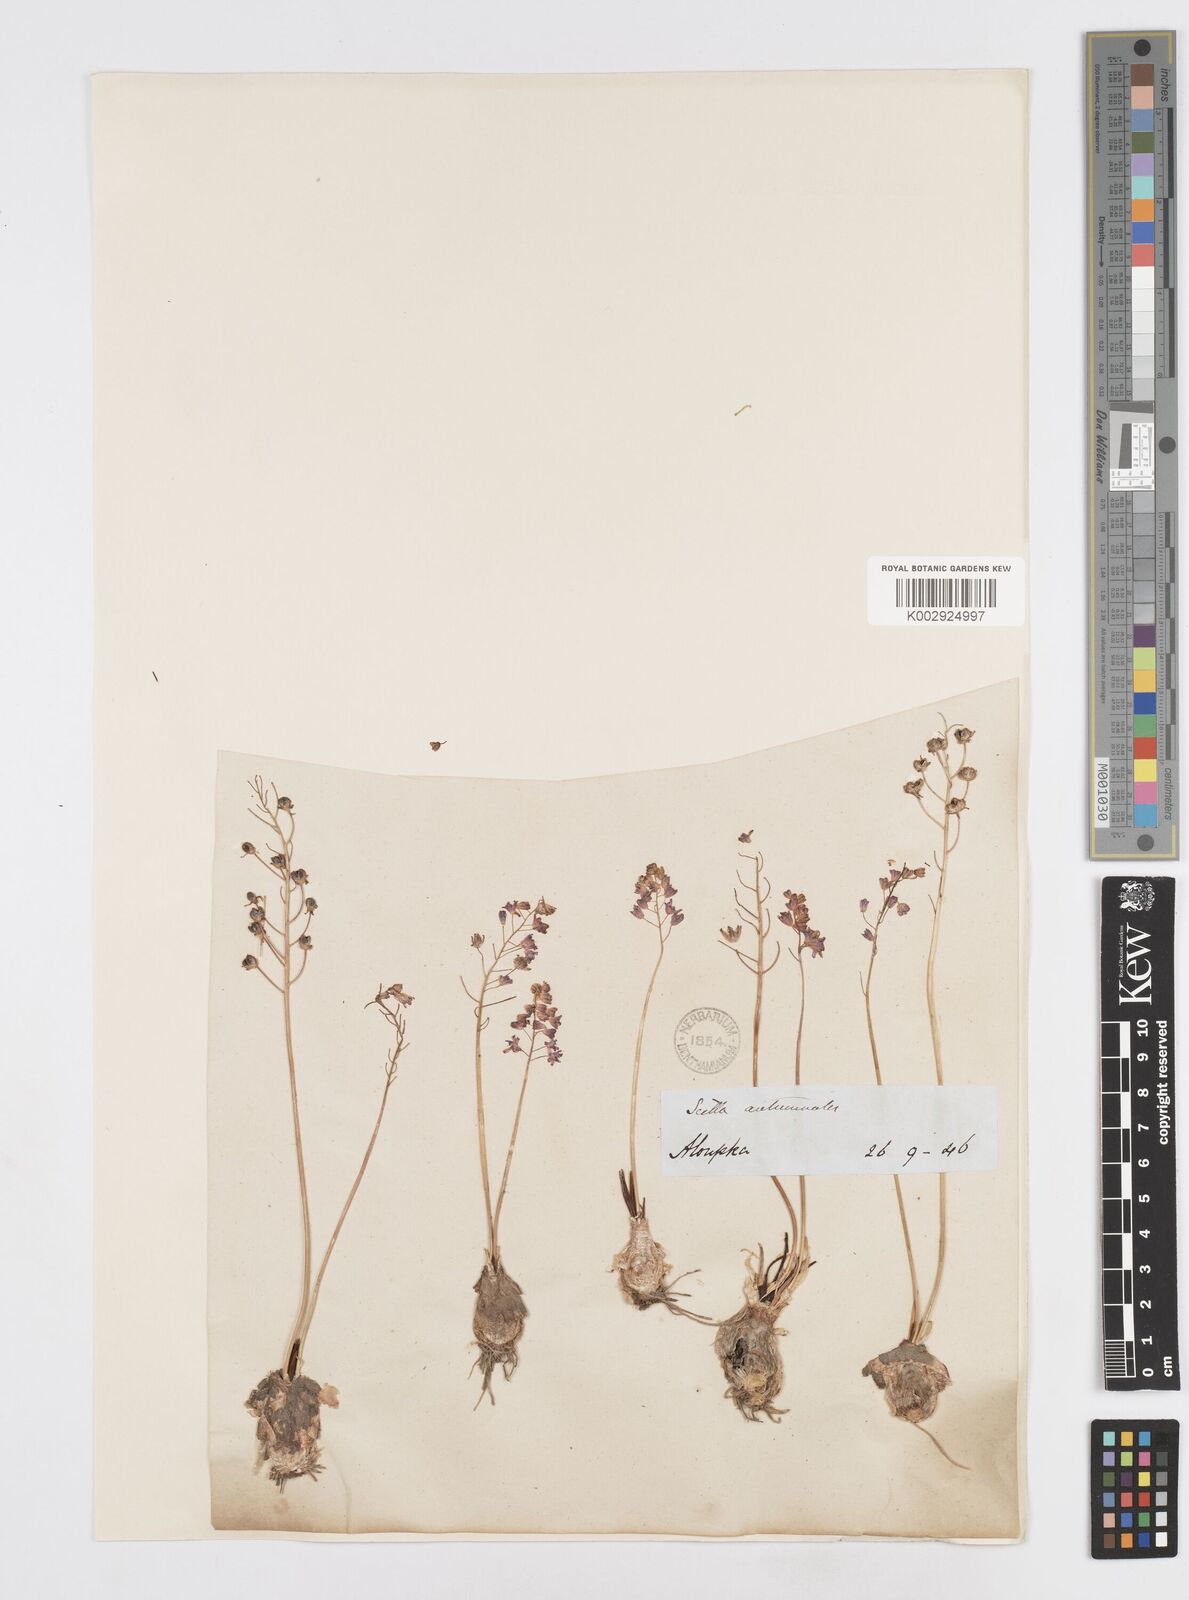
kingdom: Plantae
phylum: Tracheophyta
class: Liliopsida
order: Asparagales
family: Asparagaceae
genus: Prospero
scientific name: Prospero autumnale
